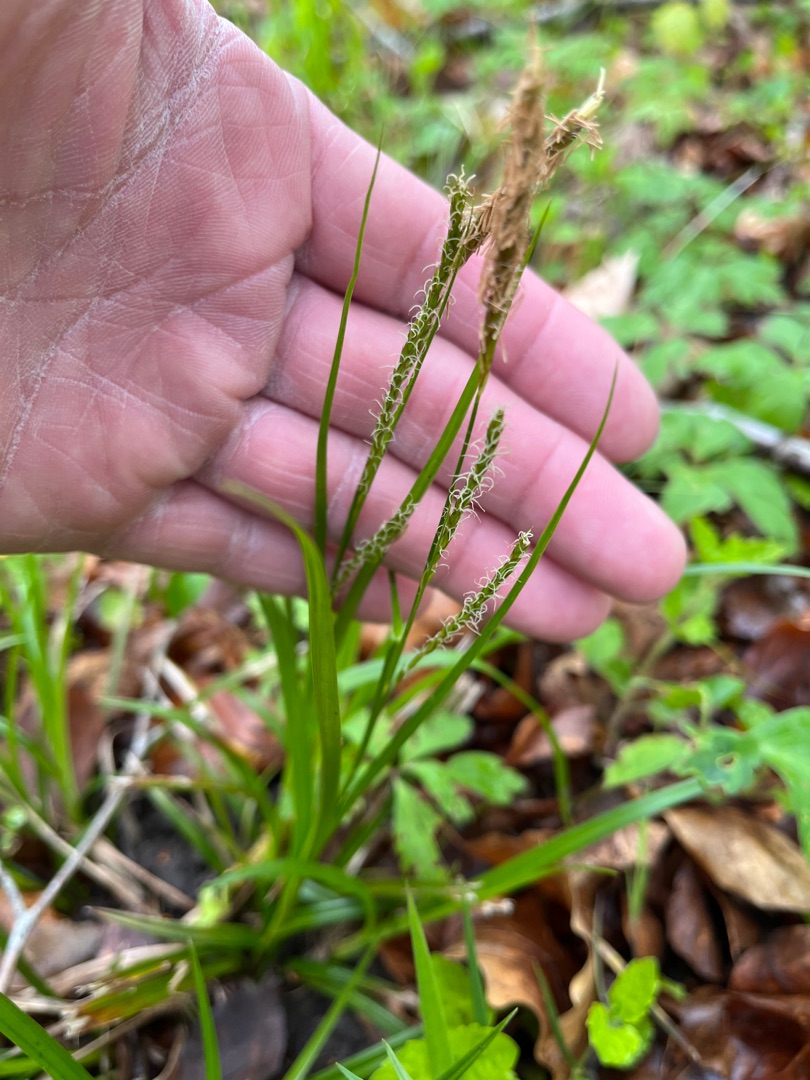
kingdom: Plantae
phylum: Tracheophyta
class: Liliopsida
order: Poales
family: Cyperaceae
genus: Carex
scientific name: Carex sylvatica
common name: Skov-star
